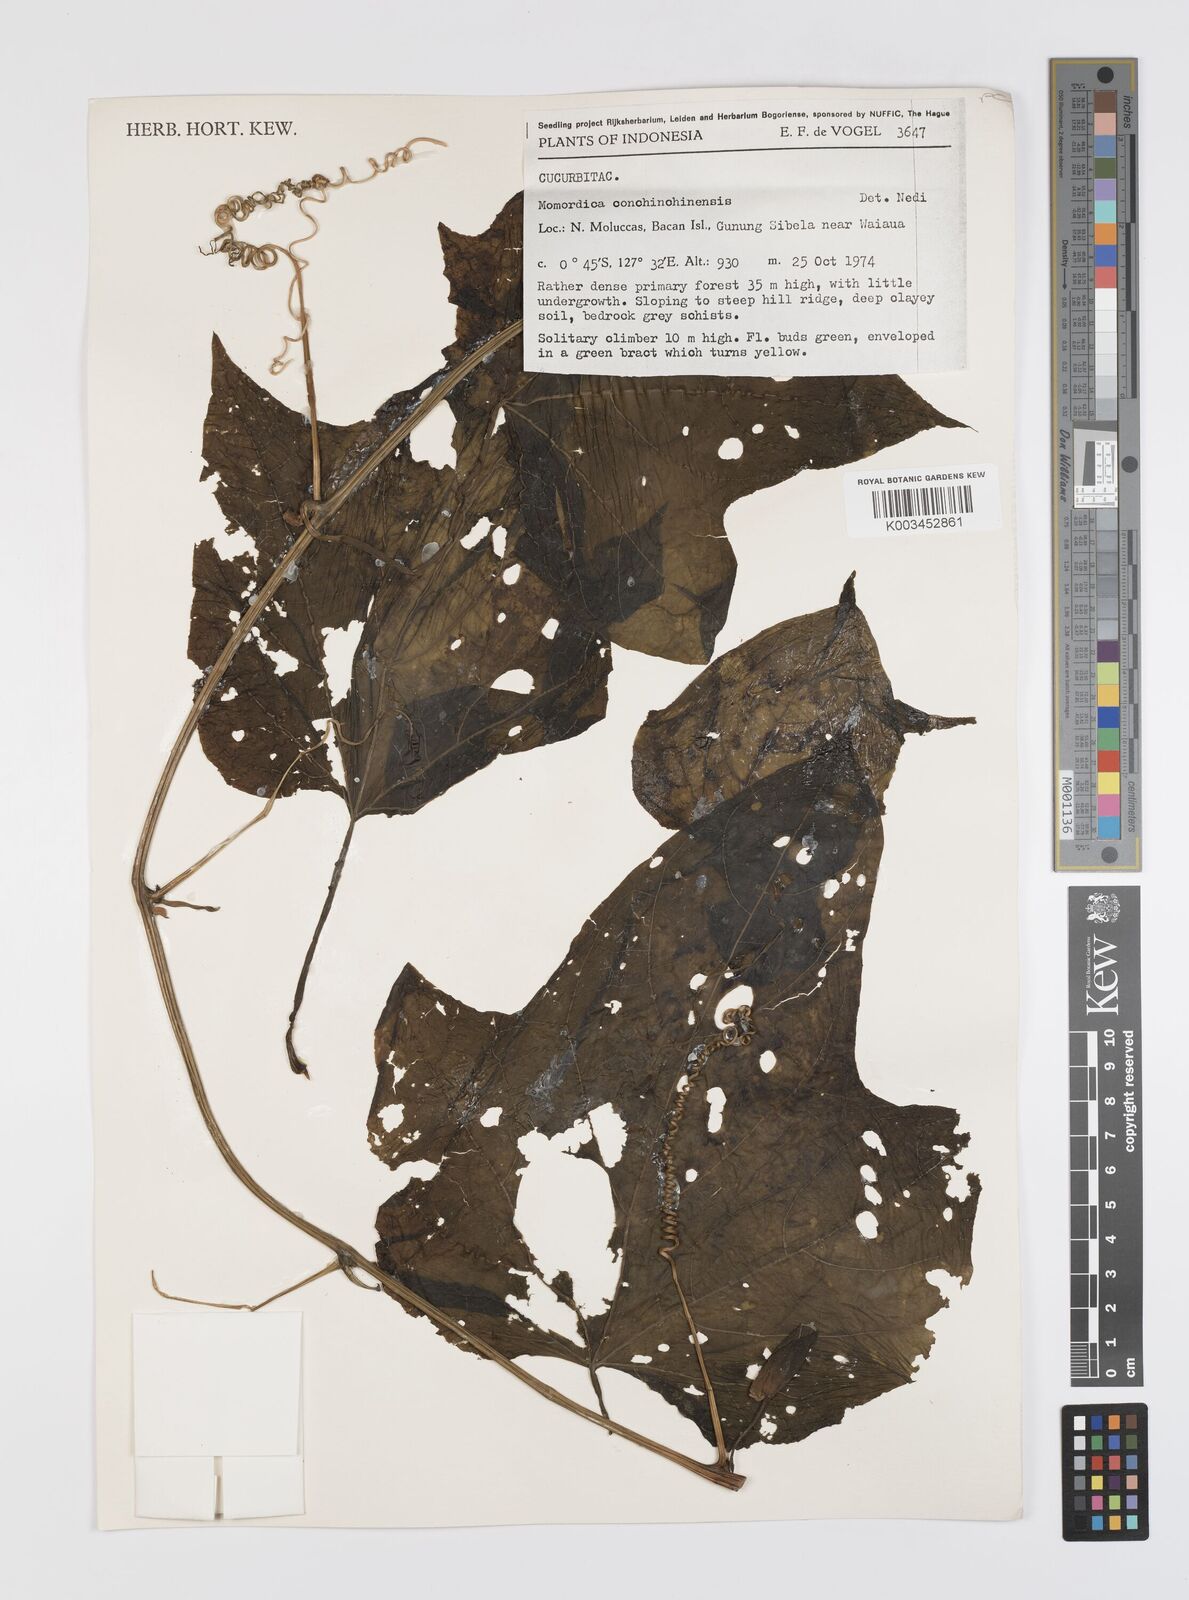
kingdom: Plantae
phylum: Tracheophyta
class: Magnoliopsida
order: Cucurbitales
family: Cucurbitaceae
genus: Momordica
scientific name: Momordica cochinchinensis
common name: Chinese bitter-cucumber
